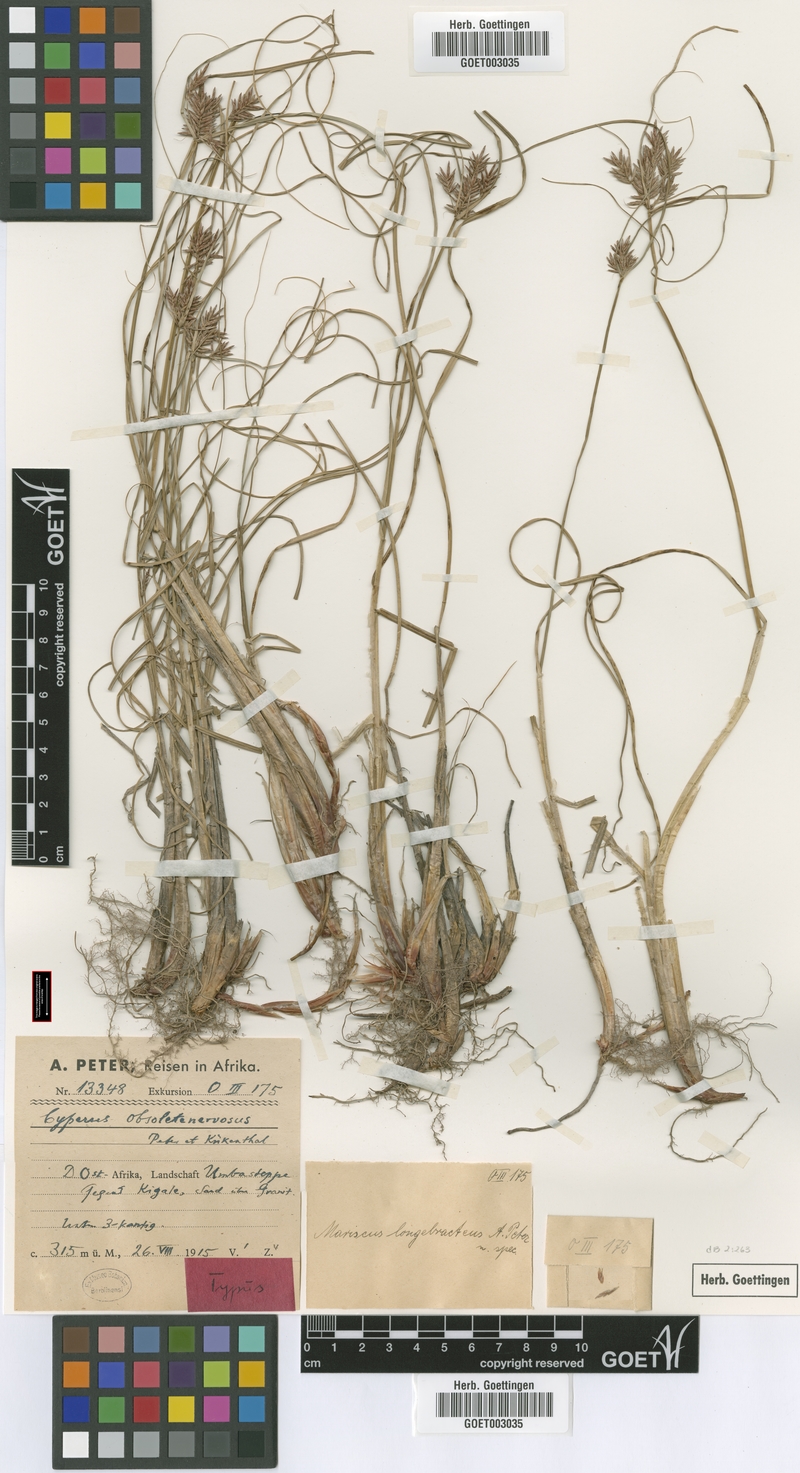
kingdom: Plantae
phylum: Tracheophyta
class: Liliopsida
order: Poales
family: Cyperaceae
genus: Cyperus
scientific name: Cyperus vestitus
